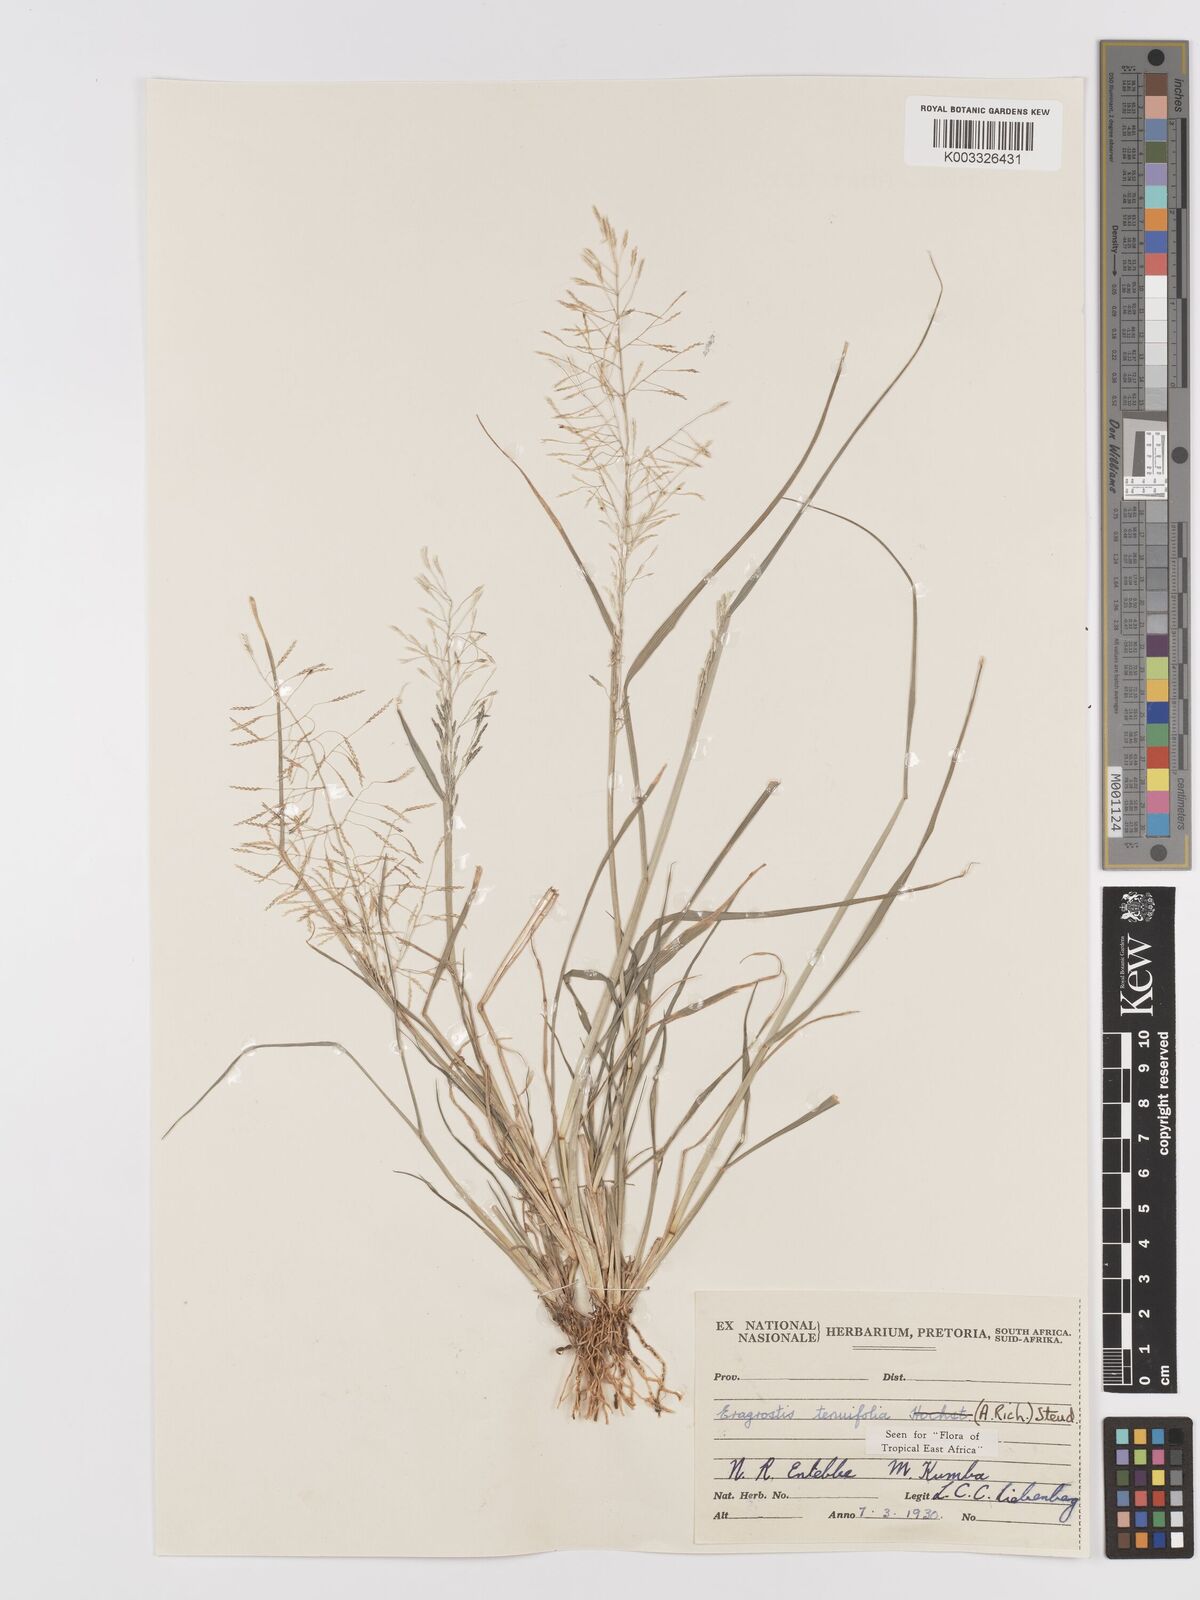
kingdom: Plantae
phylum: Tracheophyta
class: Liliopsida
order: Poales
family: Poaceae
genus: Eragrostis
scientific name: Eragrostis tenuifolia
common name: Elastic grass
